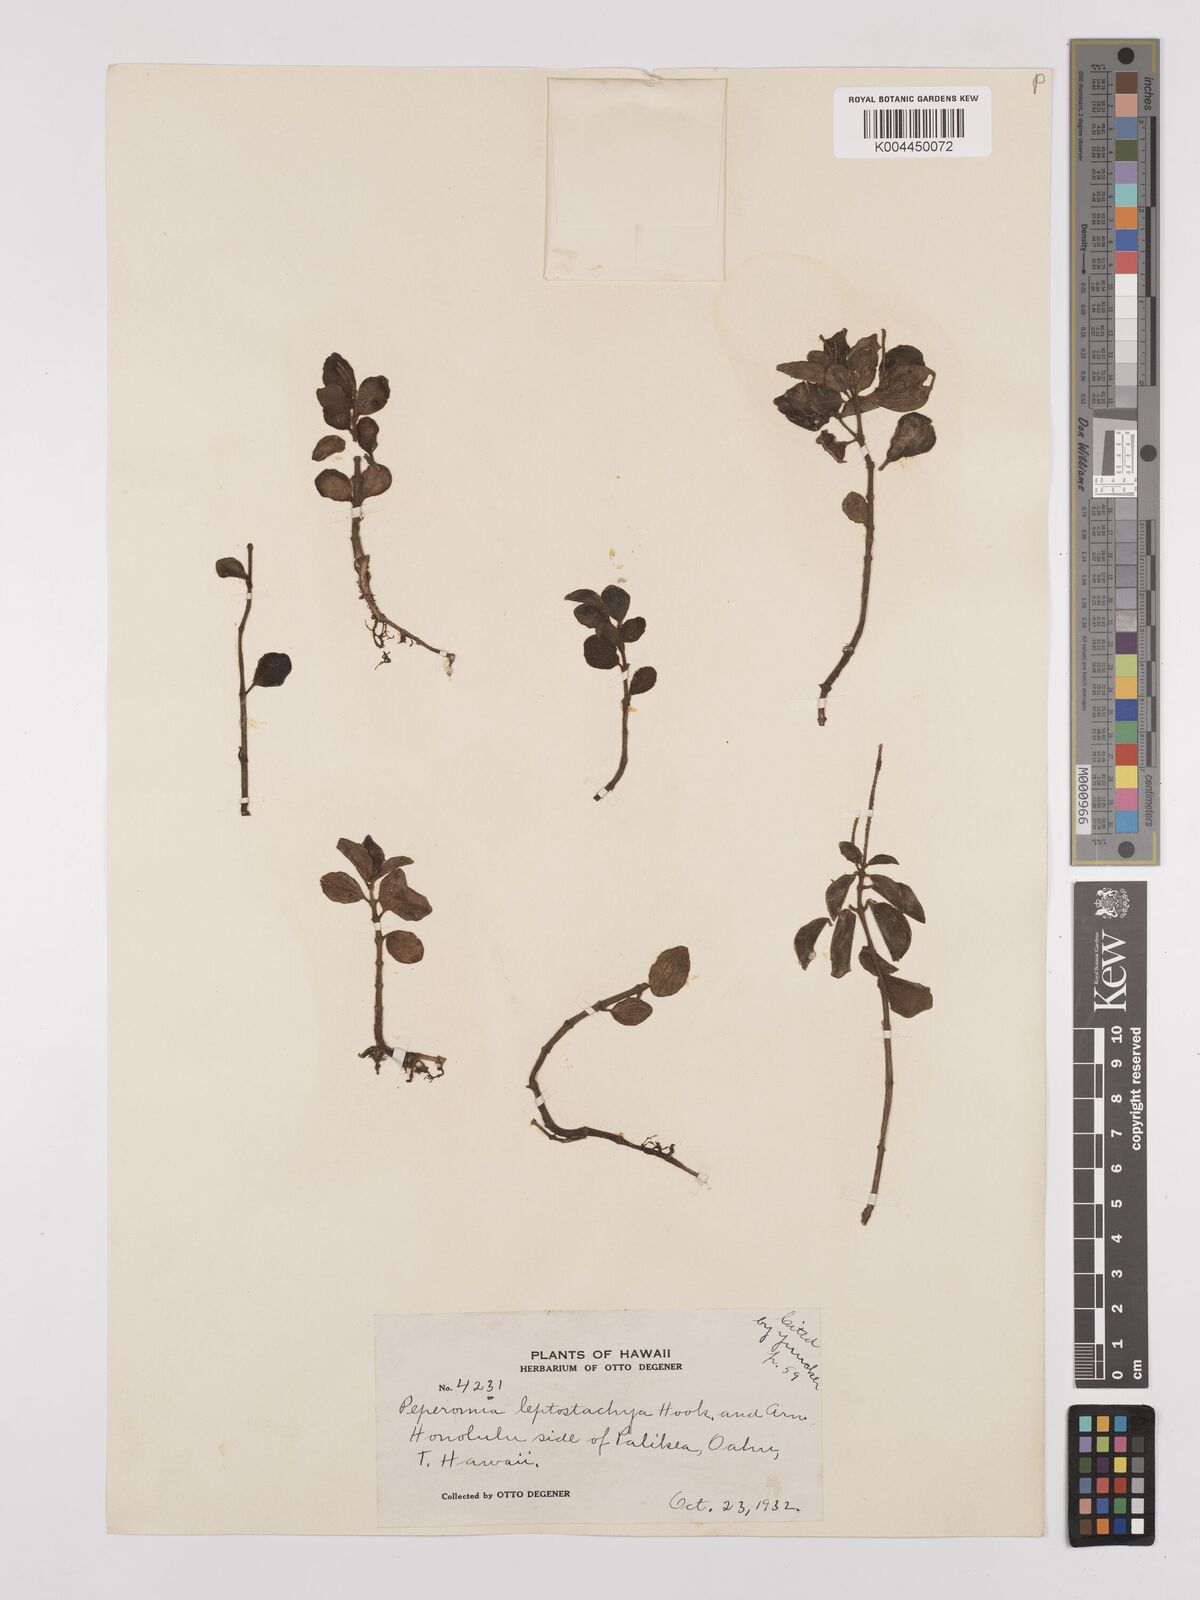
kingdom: Plantae
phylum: Tracheophyta
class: Magnoliopsida
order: Piperales
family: Piperaceae
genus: Peperomia
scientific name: Peperomia leptostachya
